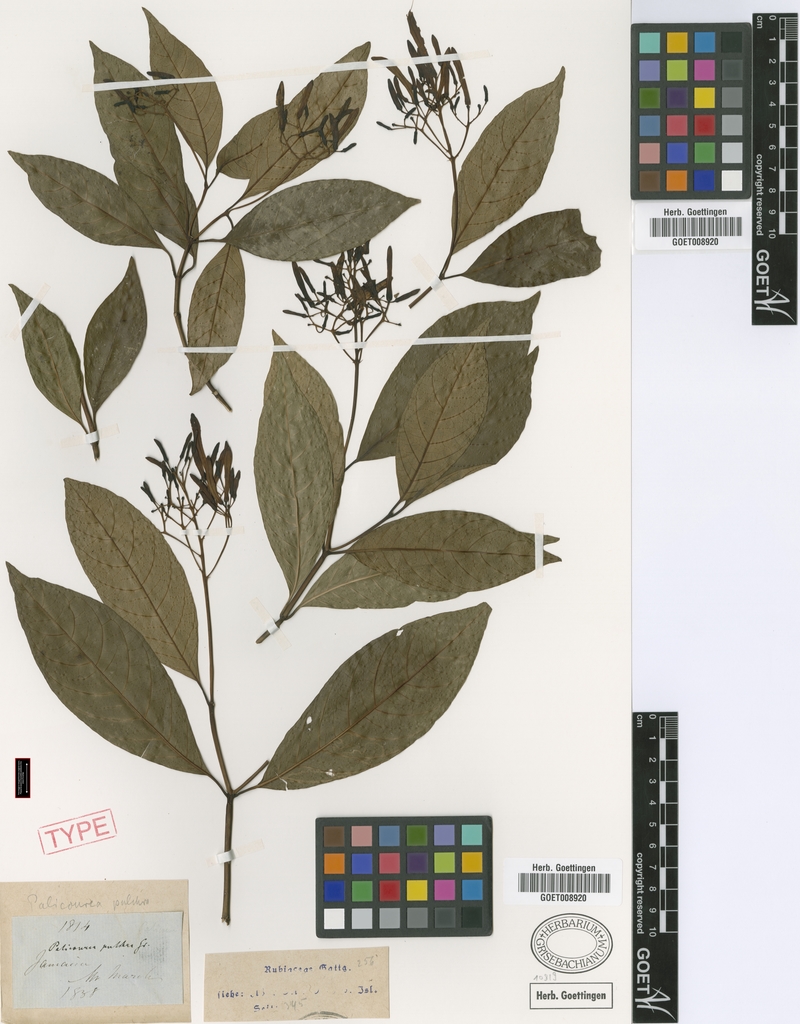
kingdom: Plantae
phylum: Tracheophyta
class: Magnoliopsida
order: Gentianales
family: Rubiaceae
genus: Palicourea
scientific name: Palicourea pulchra
